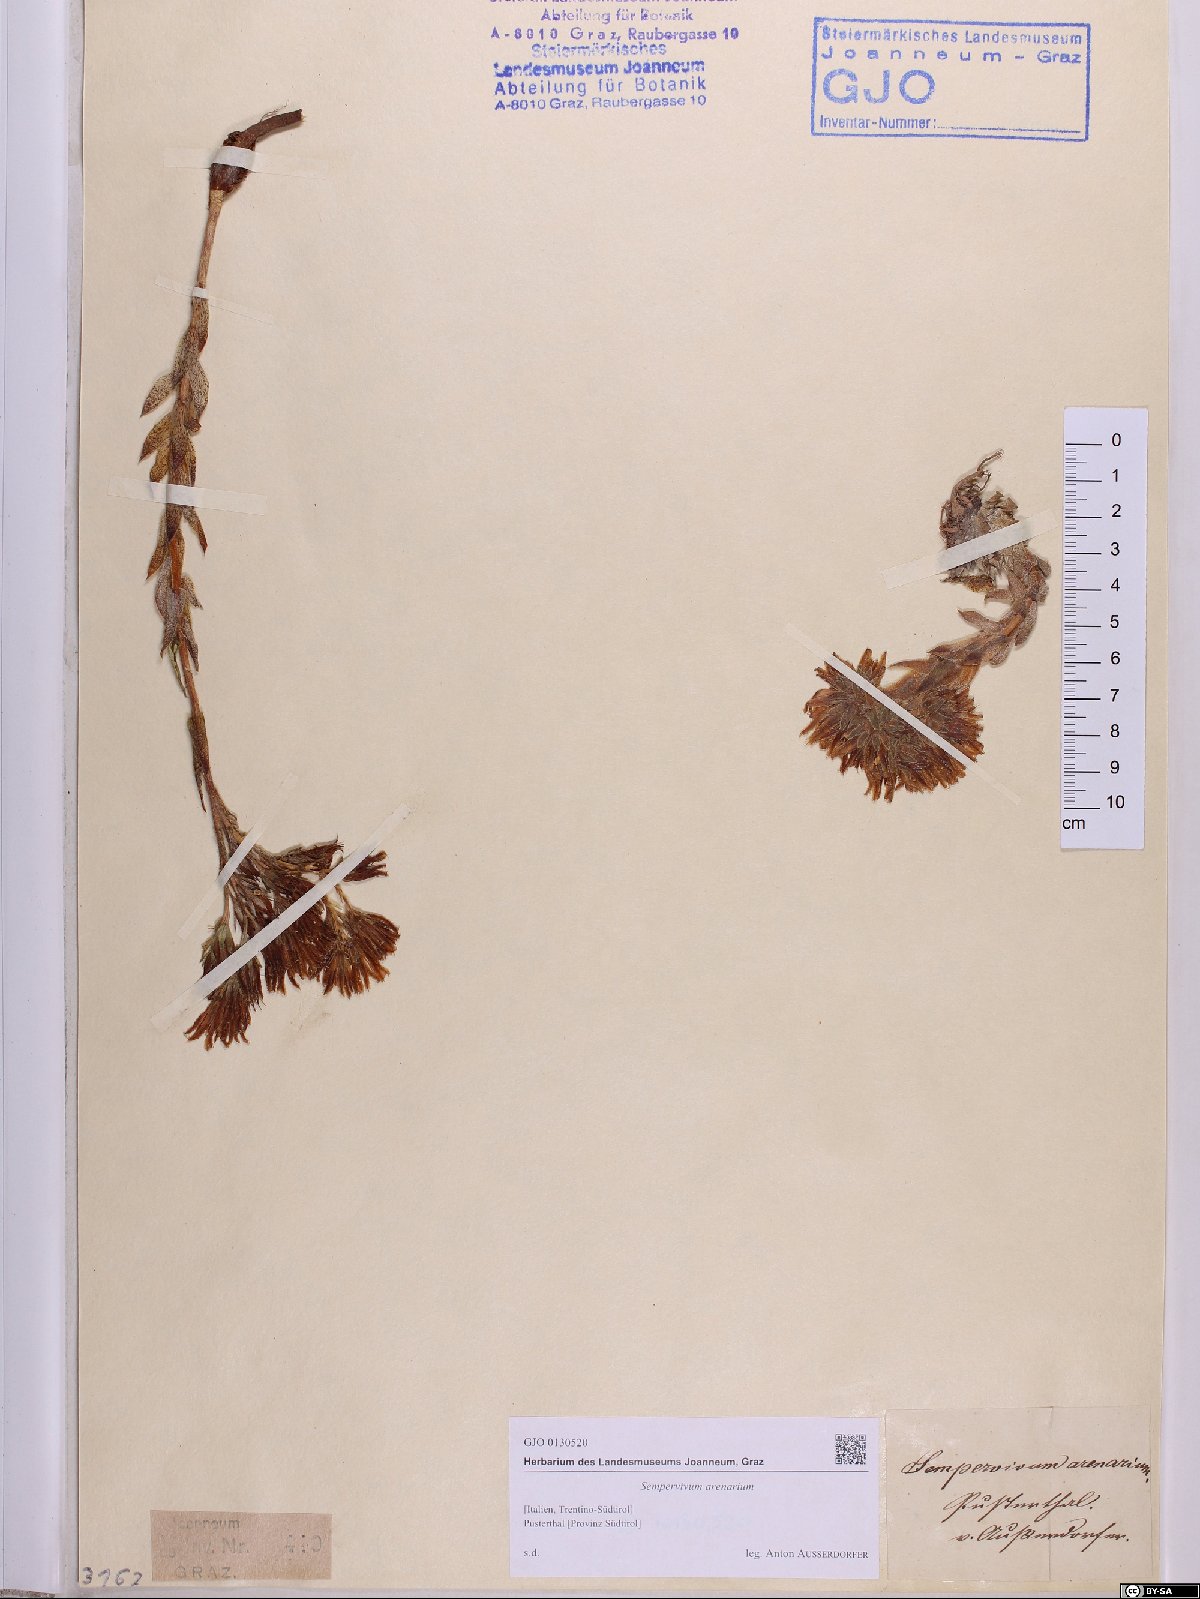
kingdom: Plantae
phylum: Tracheophyta
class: Magnoliopsida
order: Saxifragales
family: Crassulaceae
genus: Sempervivum
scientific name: Sempervivum globiferum
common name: Rolling hen-and-chicks
